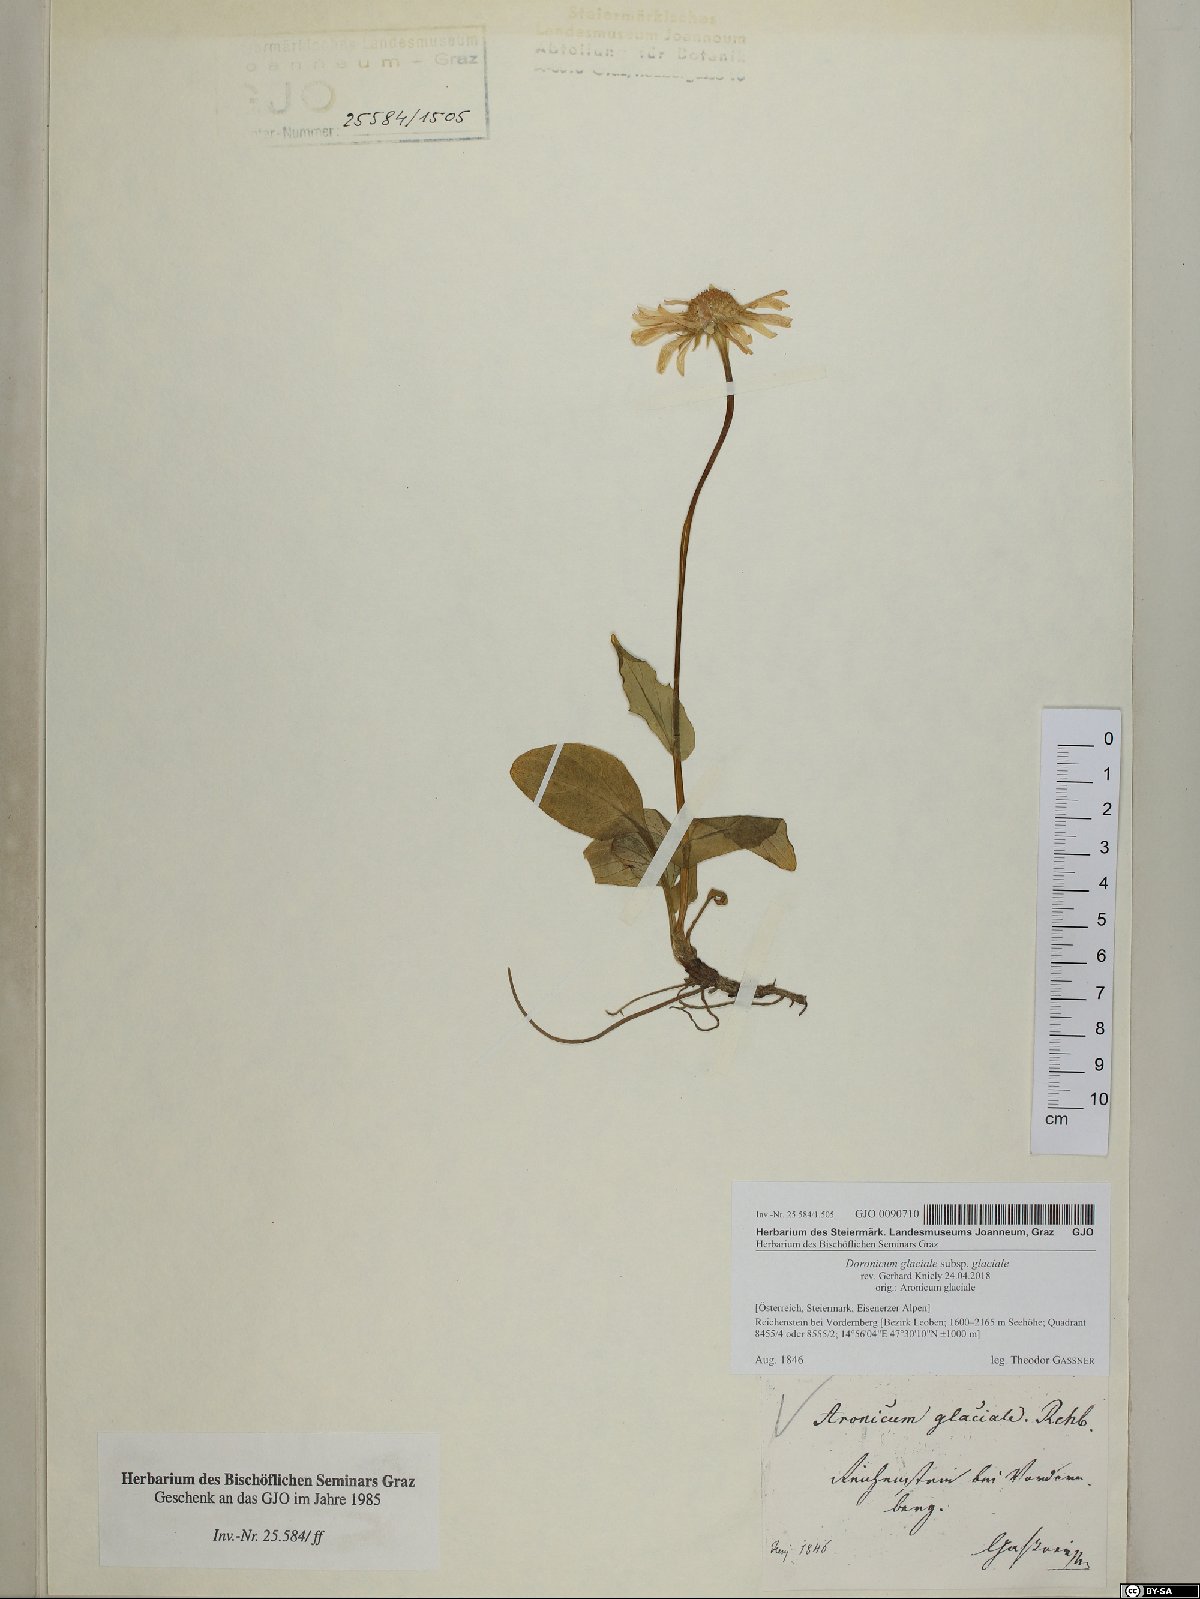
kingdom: Plantae
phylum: Tracheophyta
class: Magnoliopsida
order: Asterales
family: Asteraceae
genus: Doronicum
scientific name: Doronicum glaciale
